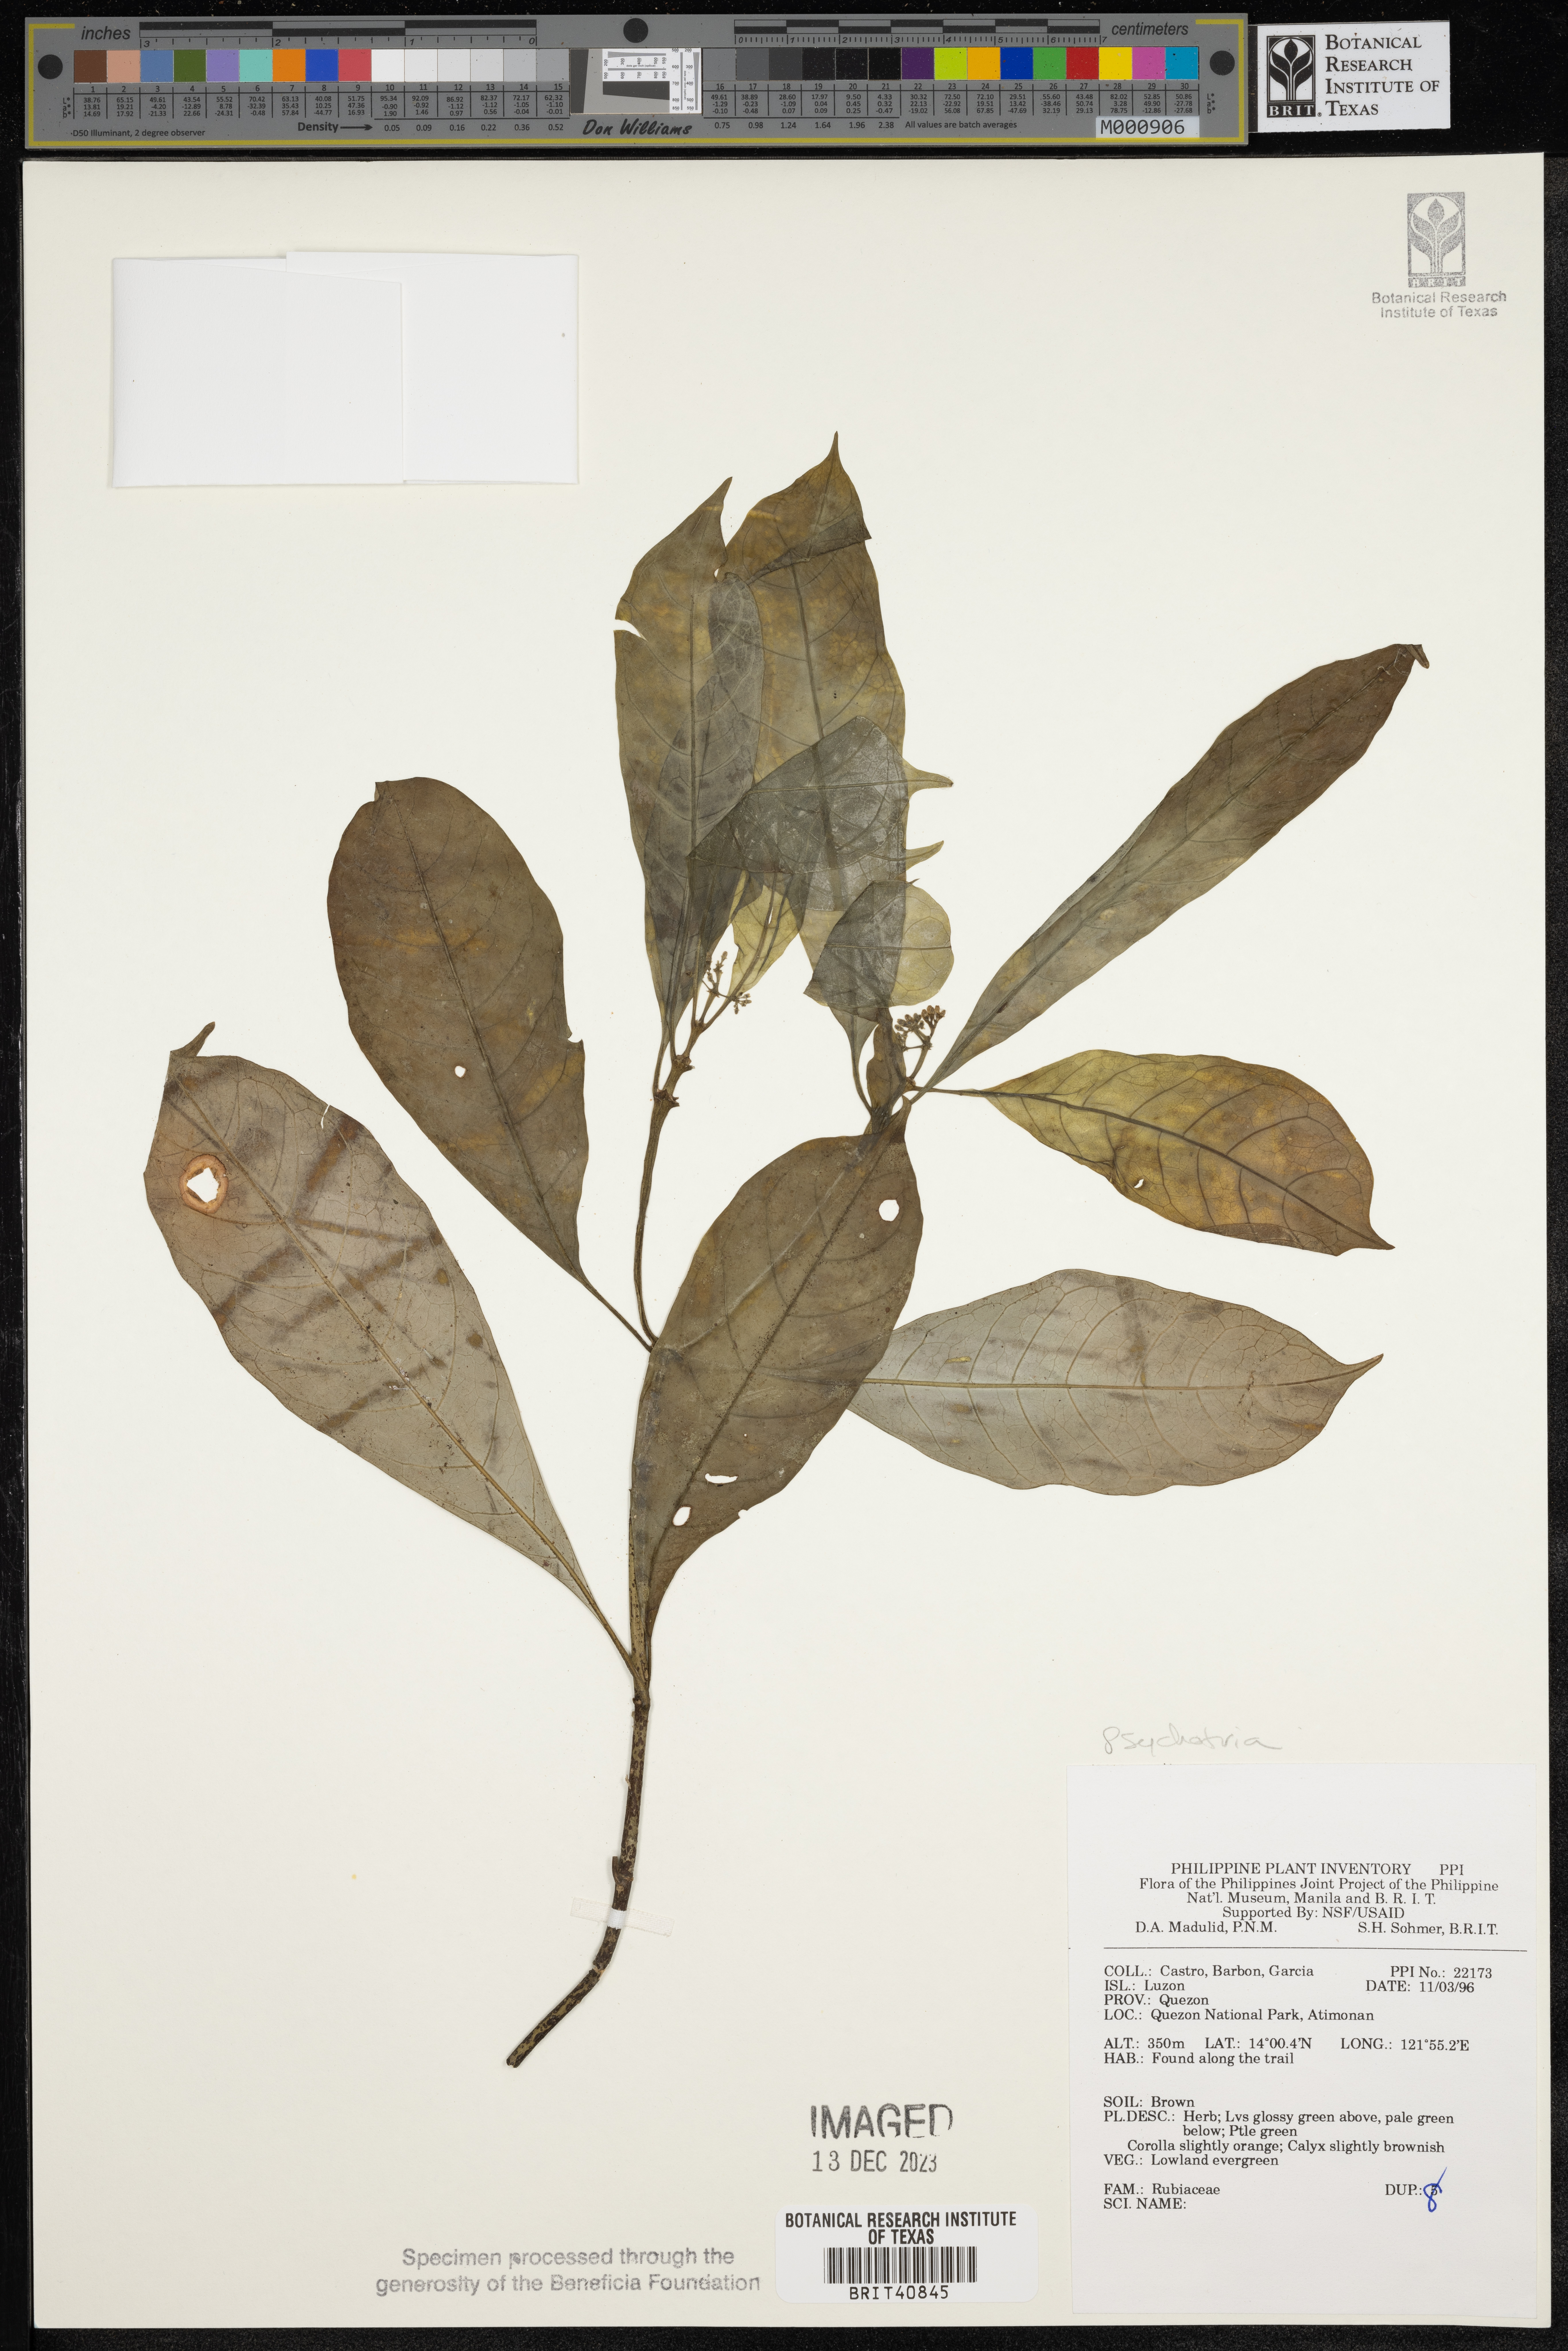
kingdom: Plantae
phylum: Tracheophyta
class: Magnoliopsida
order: Gentianales
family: Rubiaceae
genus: Psychotria
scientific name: Psychotria
